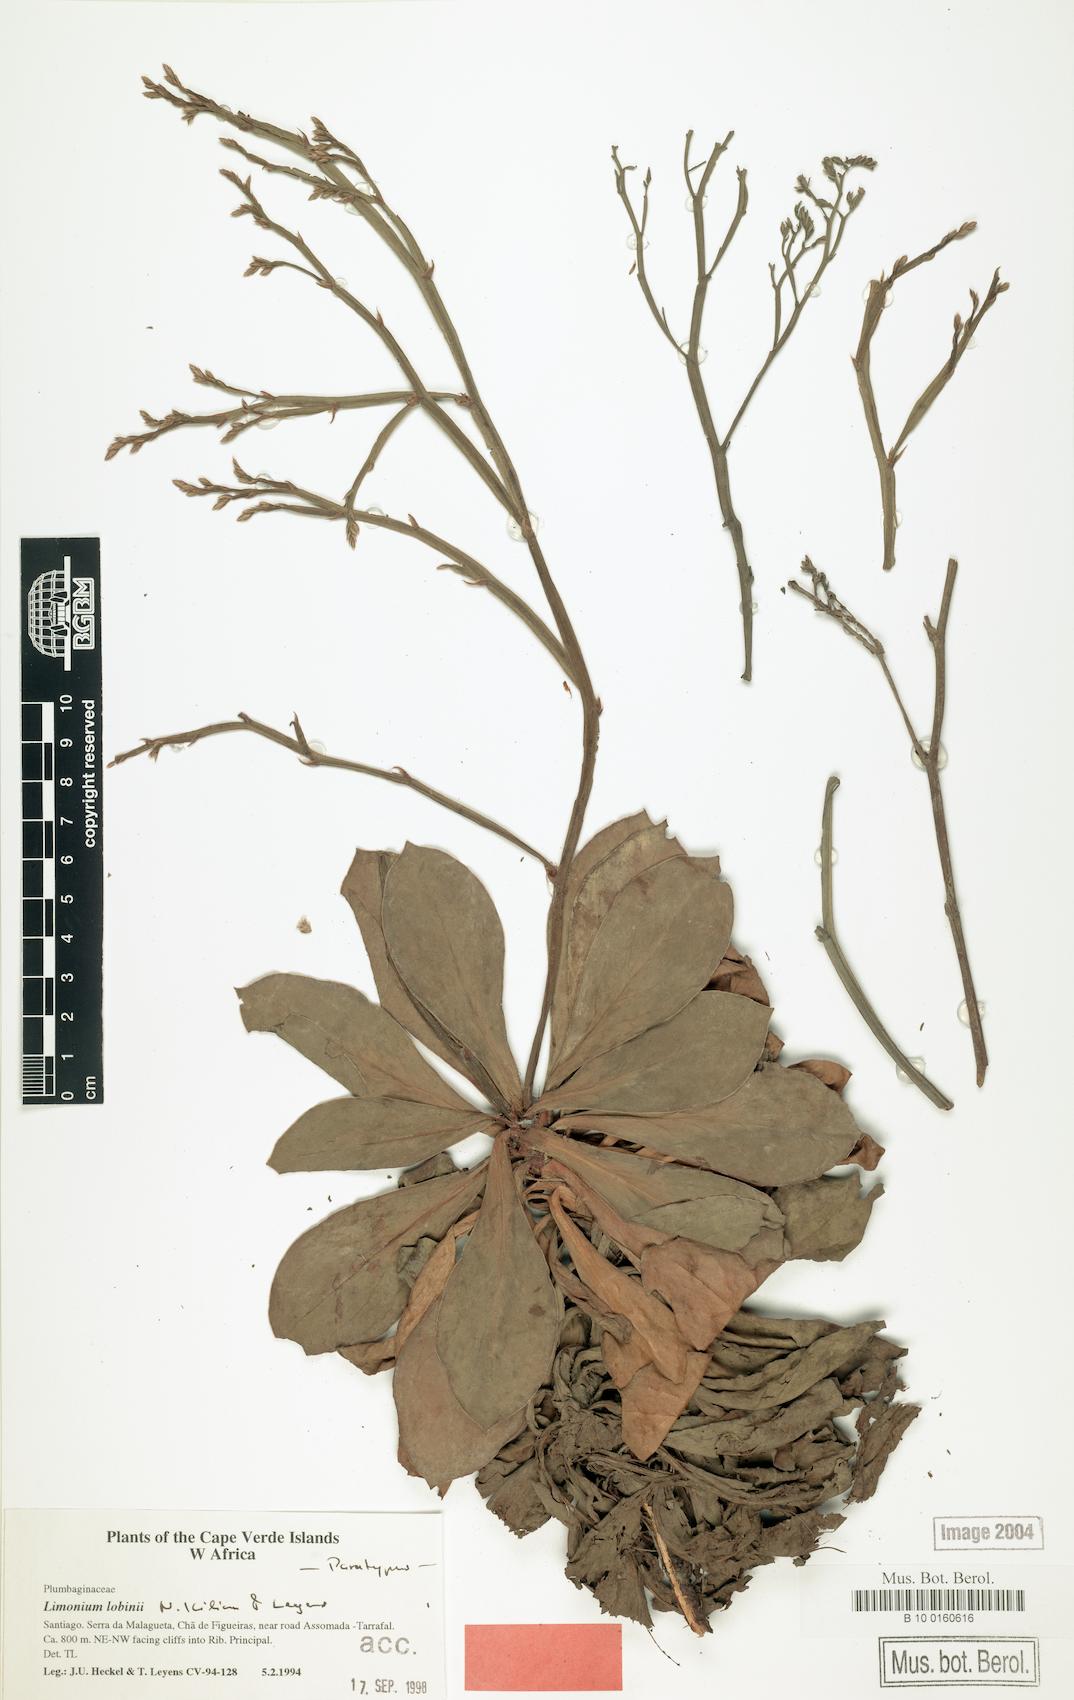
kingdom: Plantae
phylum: Tracheophyta
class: Magnoliopsida
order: Caryophyllales
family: Plumbaginaceae
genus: Limonium
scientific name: Limonium lobinii
